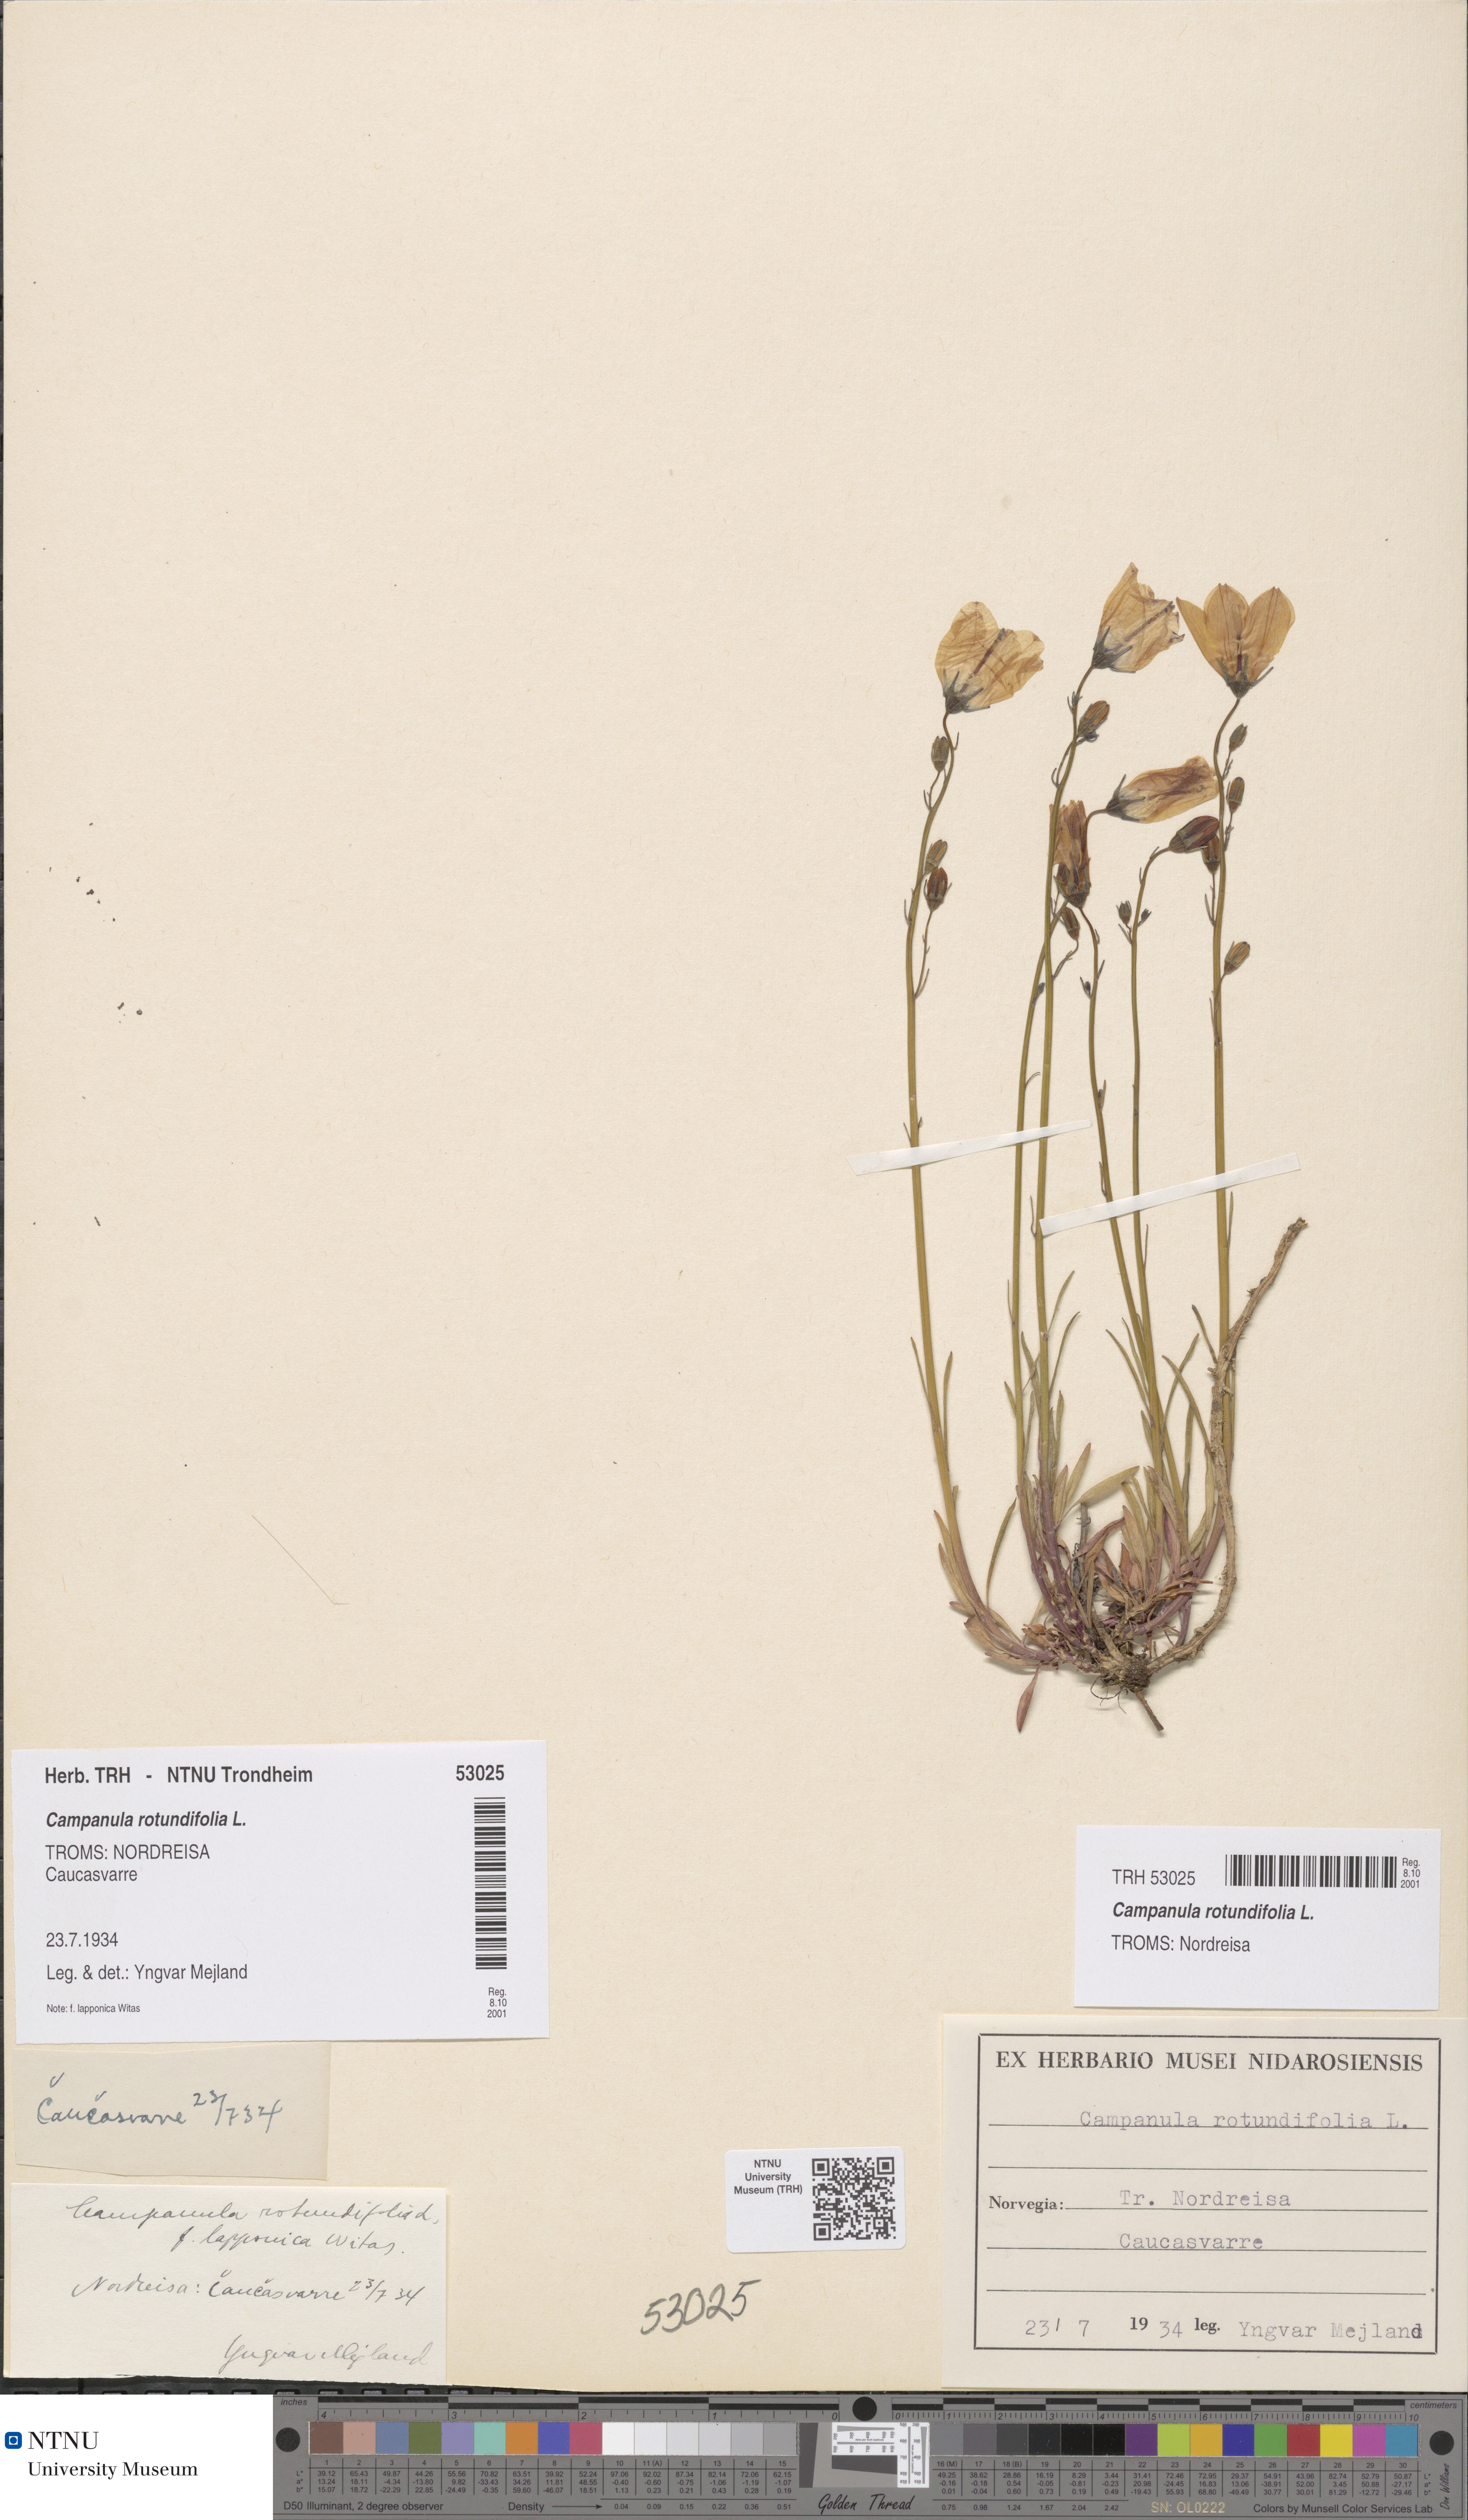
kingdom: Plantae
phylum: Tracheophyta
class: Magnoliopsida
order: Asterales
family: Campanulaceae
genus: Campanula
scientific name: Campanula rotundifolia
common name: Harebell
